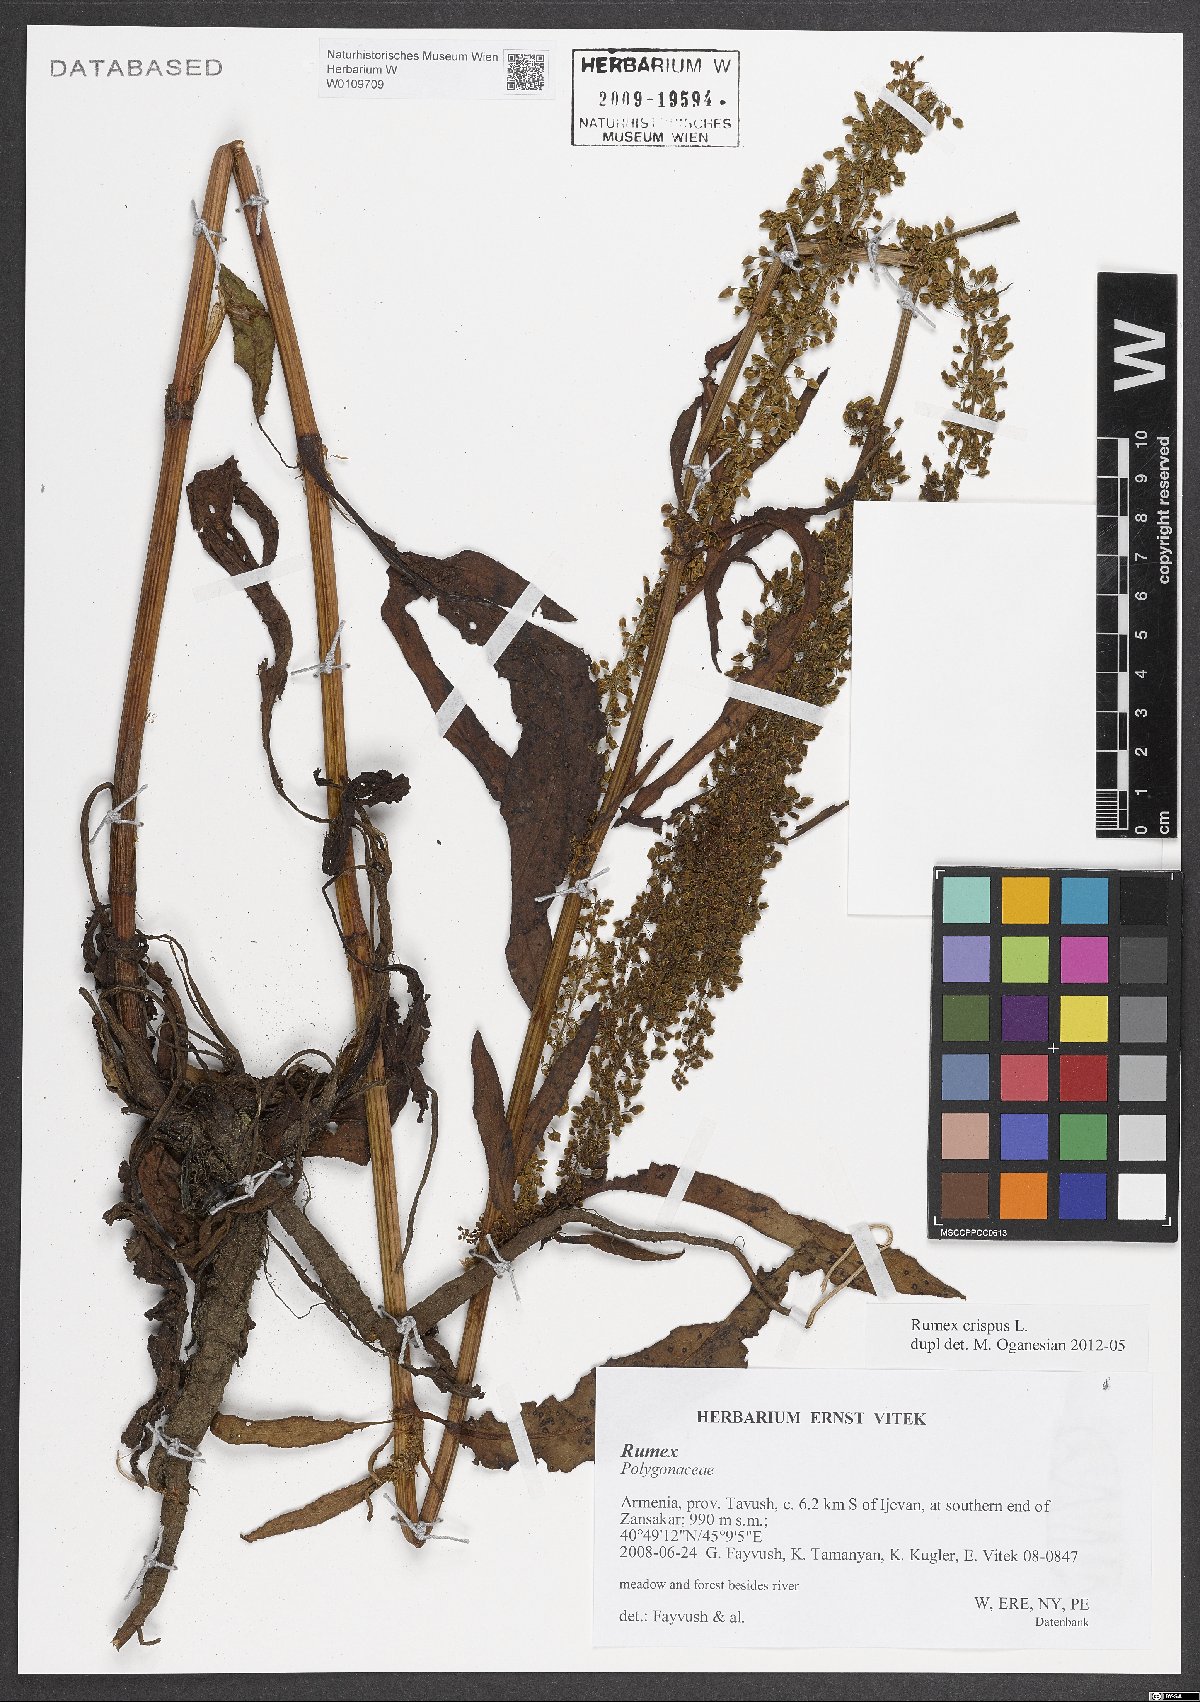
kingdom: Plantae
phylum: Tracheophyta
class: Magnoliopsida
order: Caryophyllales
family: Polygonaceae
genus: Rumex
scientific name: Rumex crispus
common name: Curled dock
